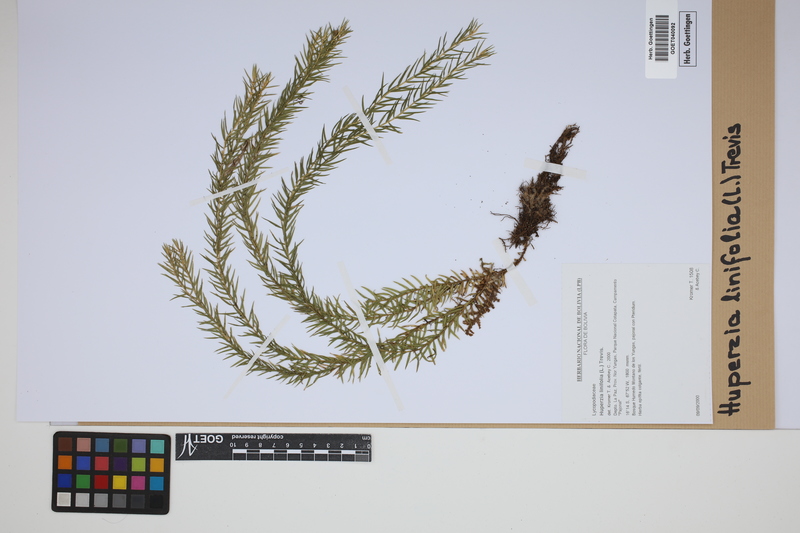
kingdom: Plantae
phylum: Tracheophyta
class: Lycopodiopsida
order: Lycopodiales
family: Lycopodiaceae
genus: Phlegmariurus
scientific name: Phlegmariurus linifolius
